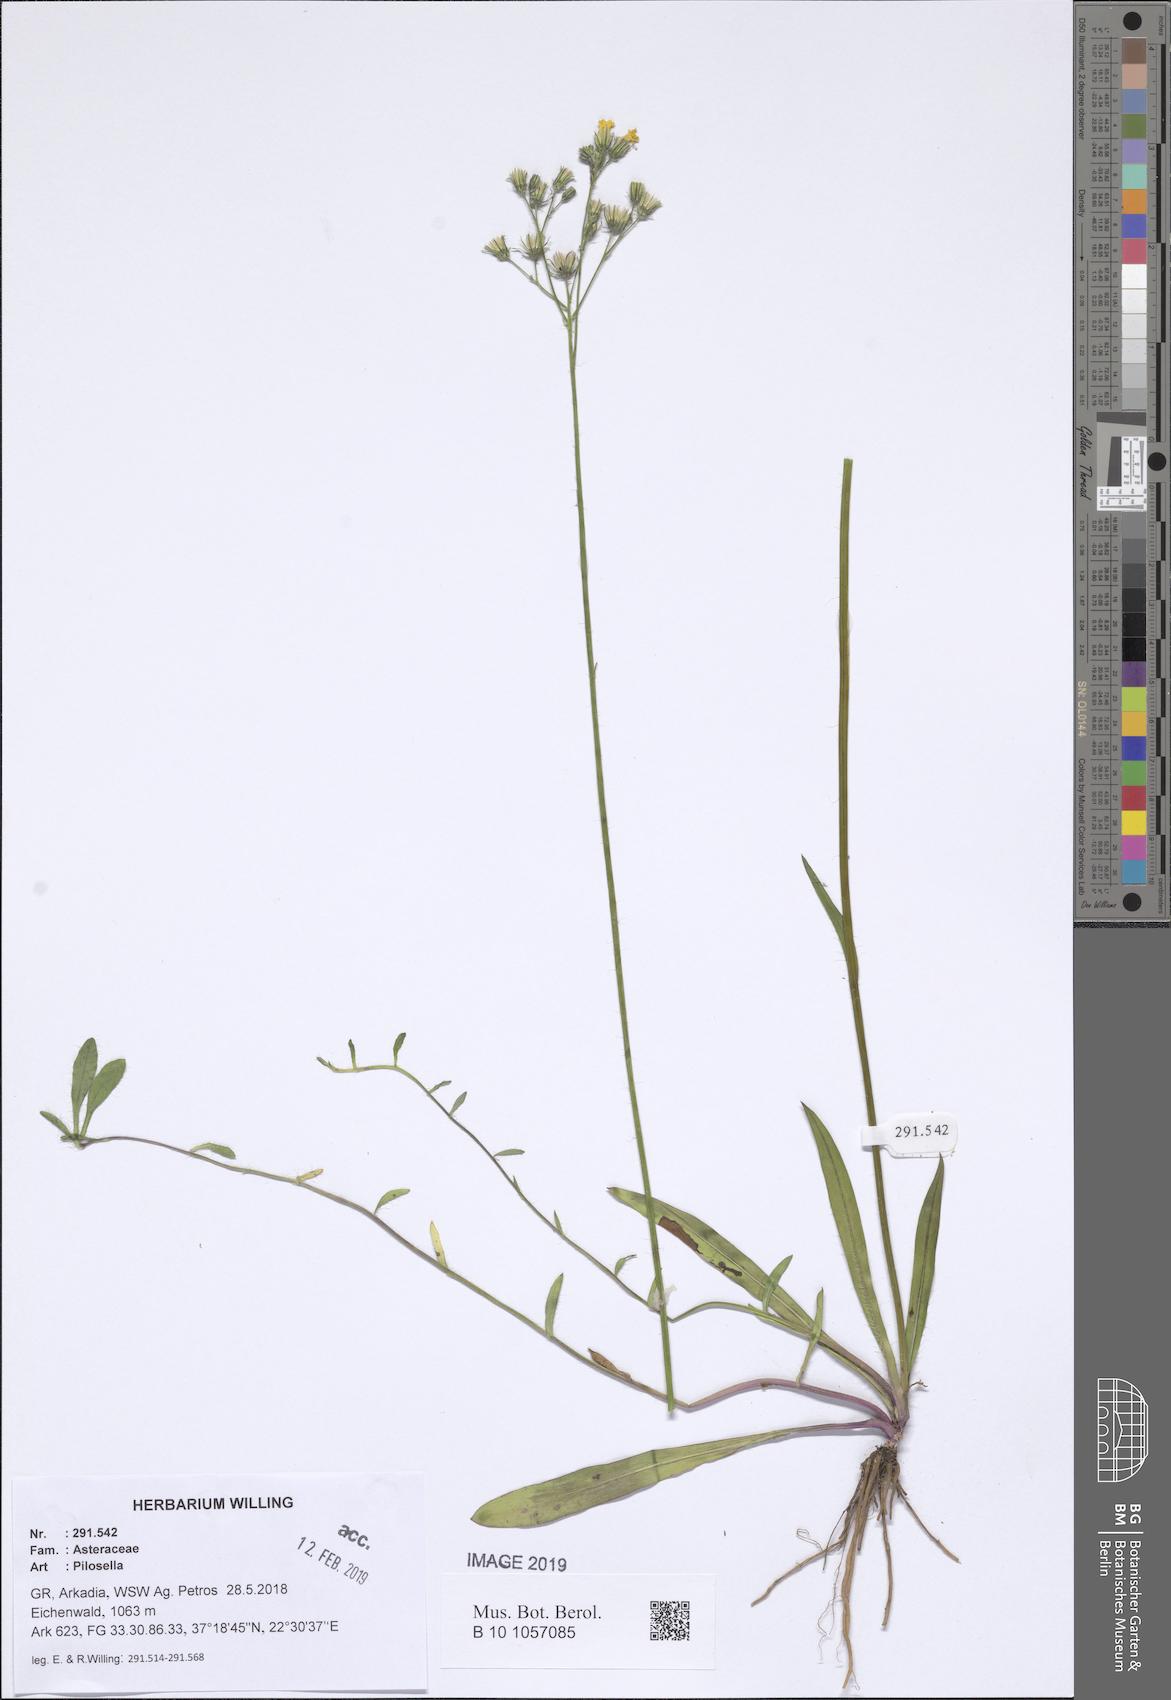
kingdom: Plantae
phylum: Tracheophyta
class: Magnoliopsida
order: Asterales
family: Asteraceae
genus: Pilosella
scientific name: Pilosella
